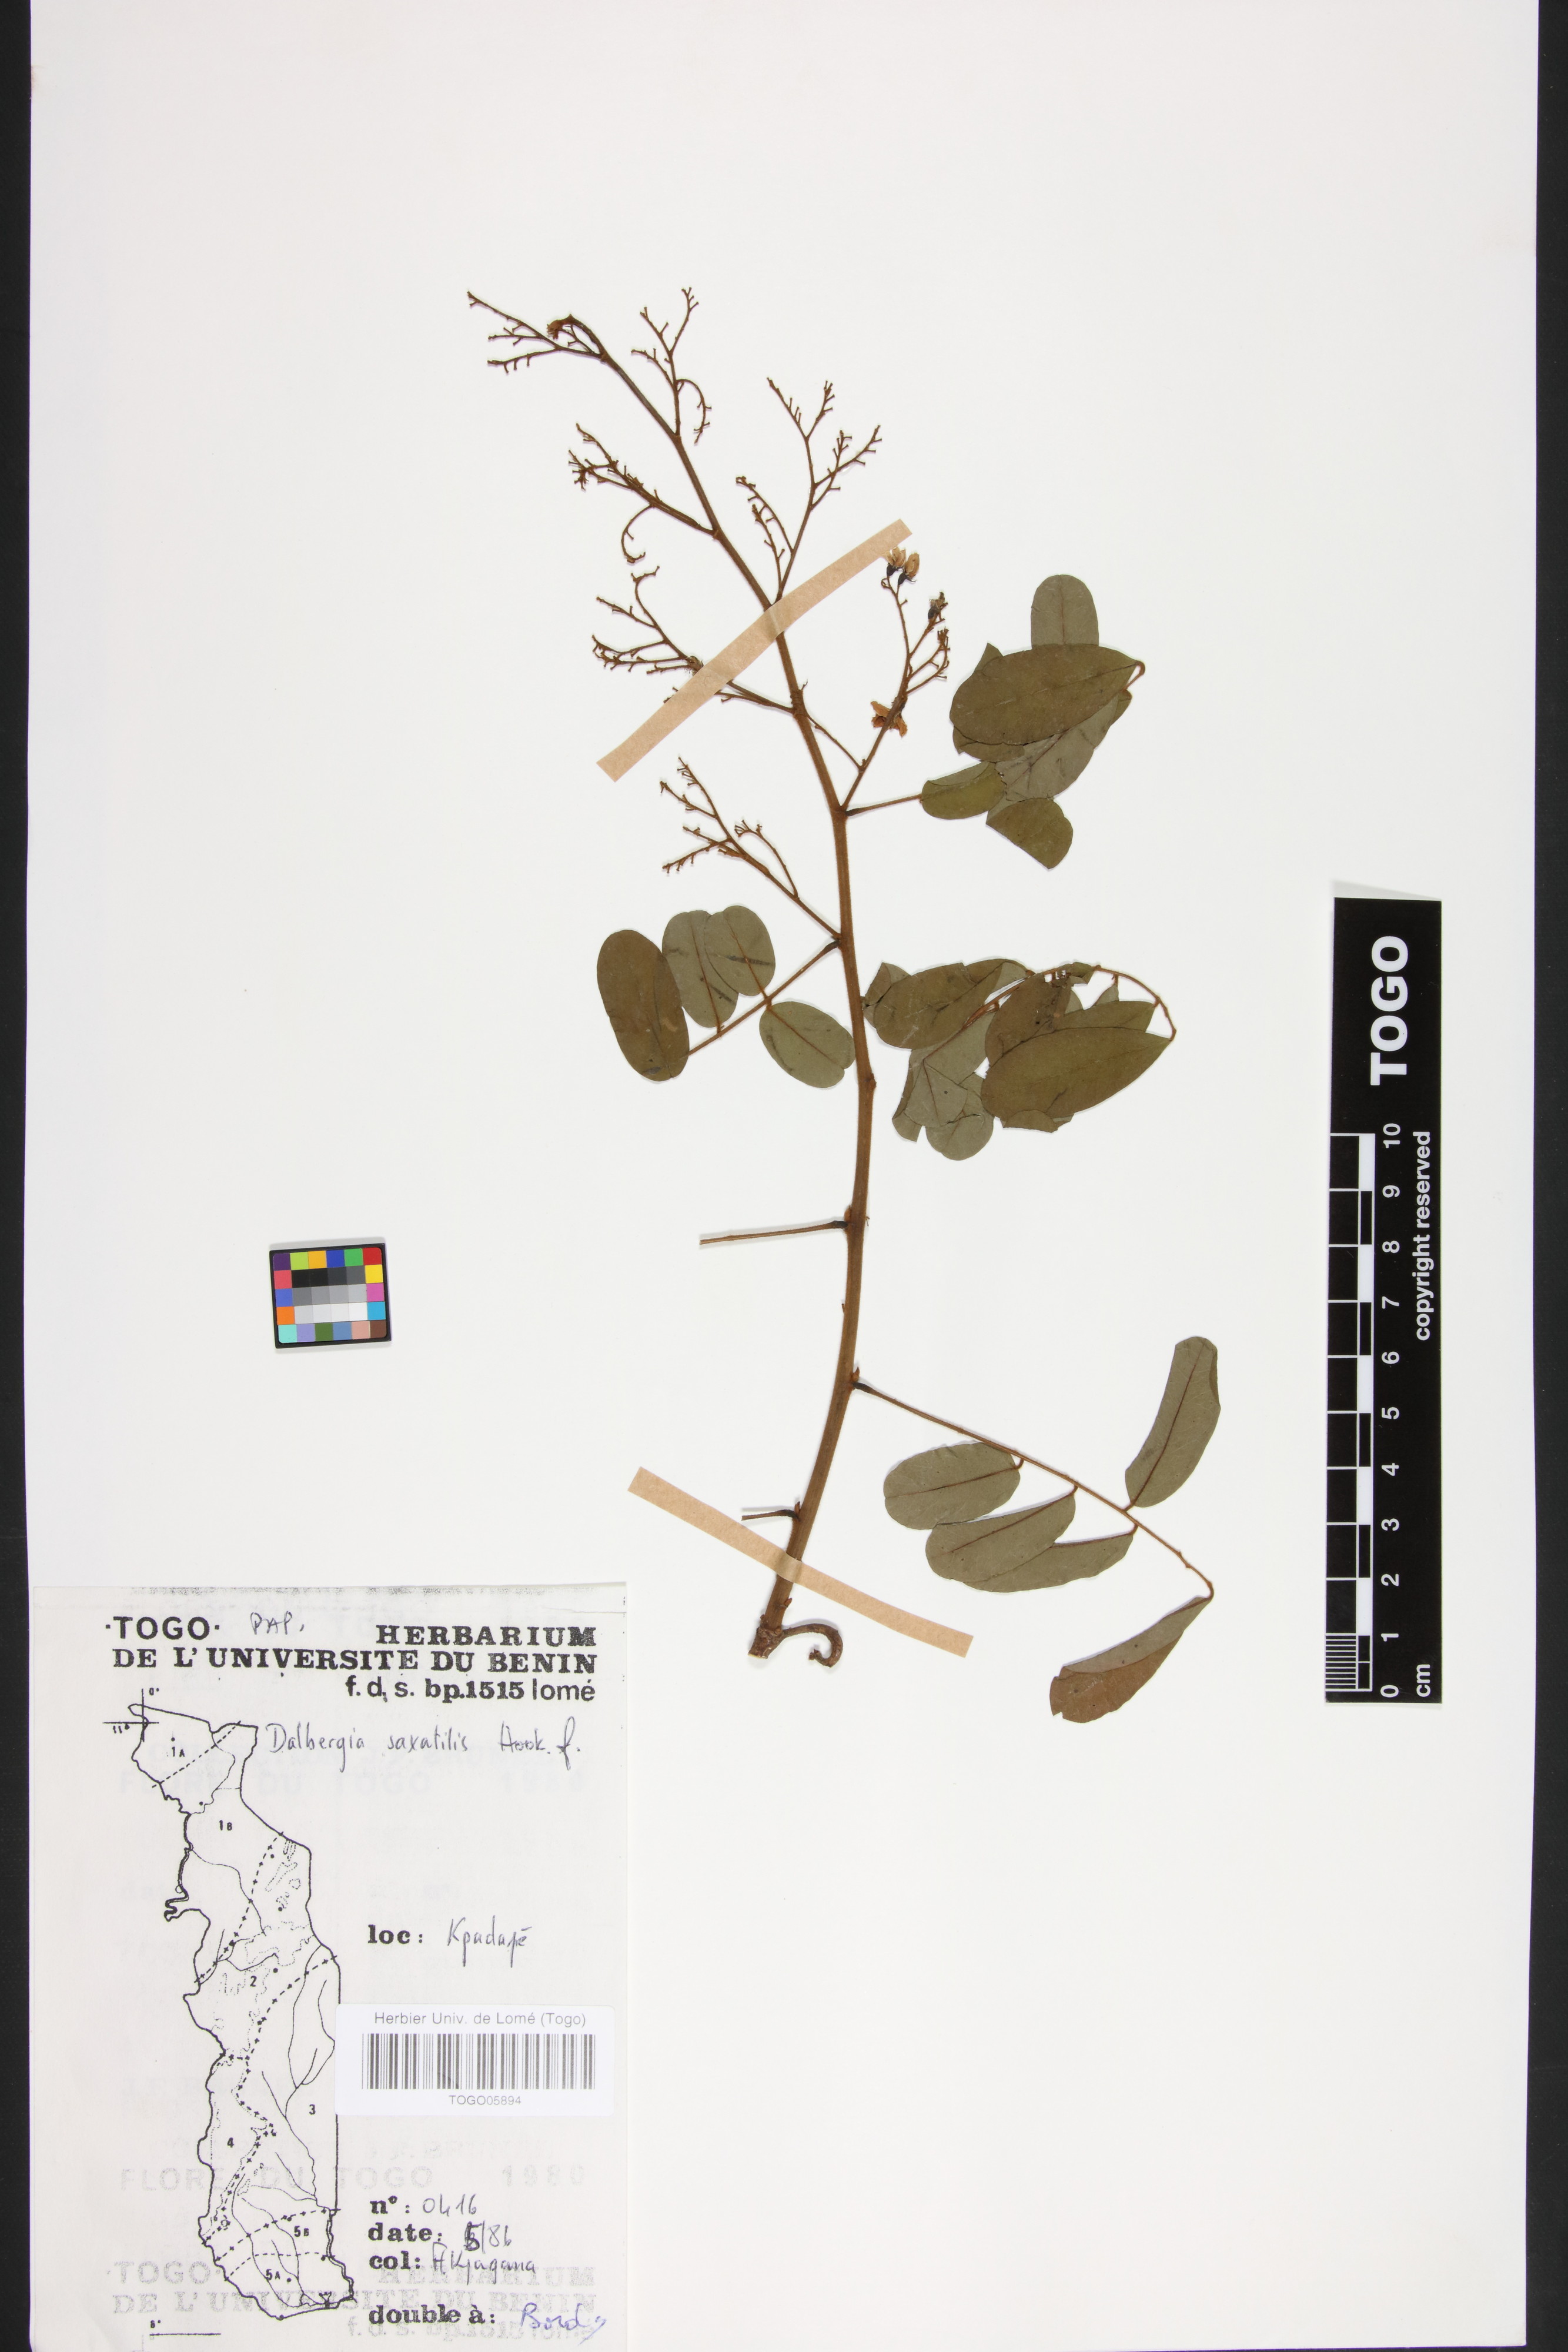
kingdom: Plantae
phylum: Tracheophyta
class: Magnoliopsida
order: Fabales
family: Fabaceae
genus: Dalbergia
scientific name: Dalbergia saxatilis
